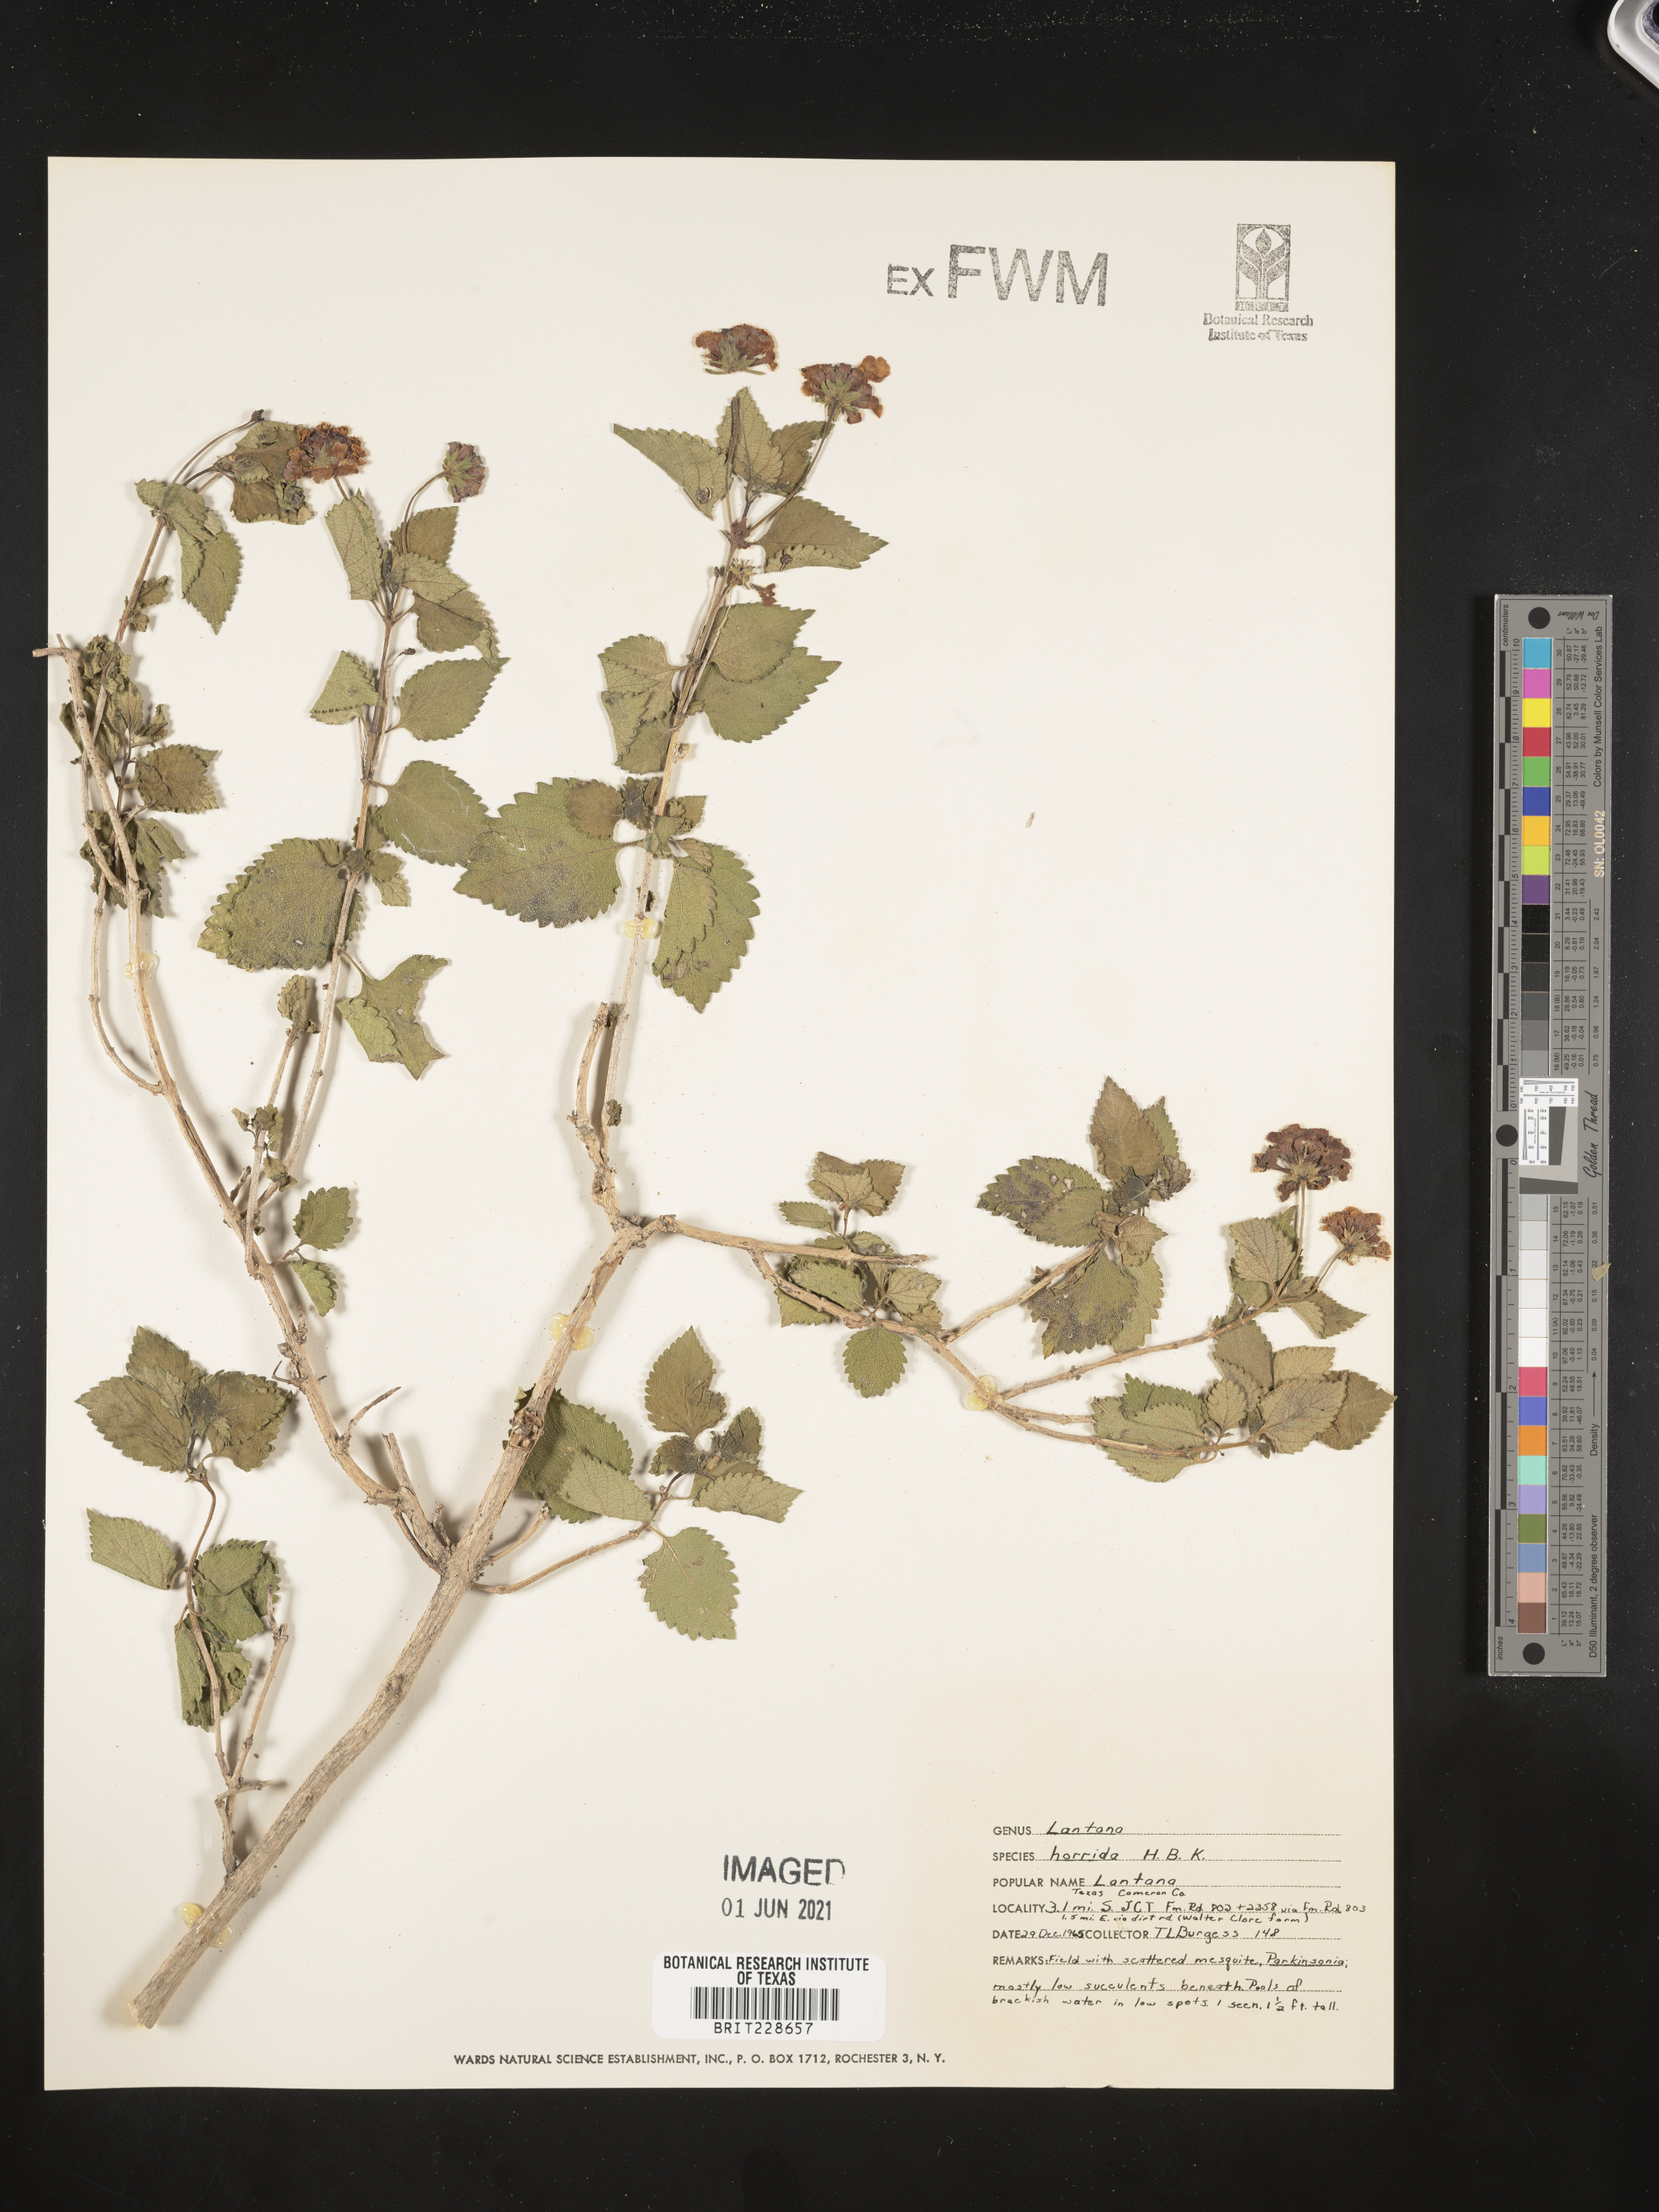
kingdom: Plantae
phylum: Tracheophyta
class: Magnoliopsida
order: Lamiales
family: Verbenaceae
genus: Lantana
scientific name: Lantana horrida
